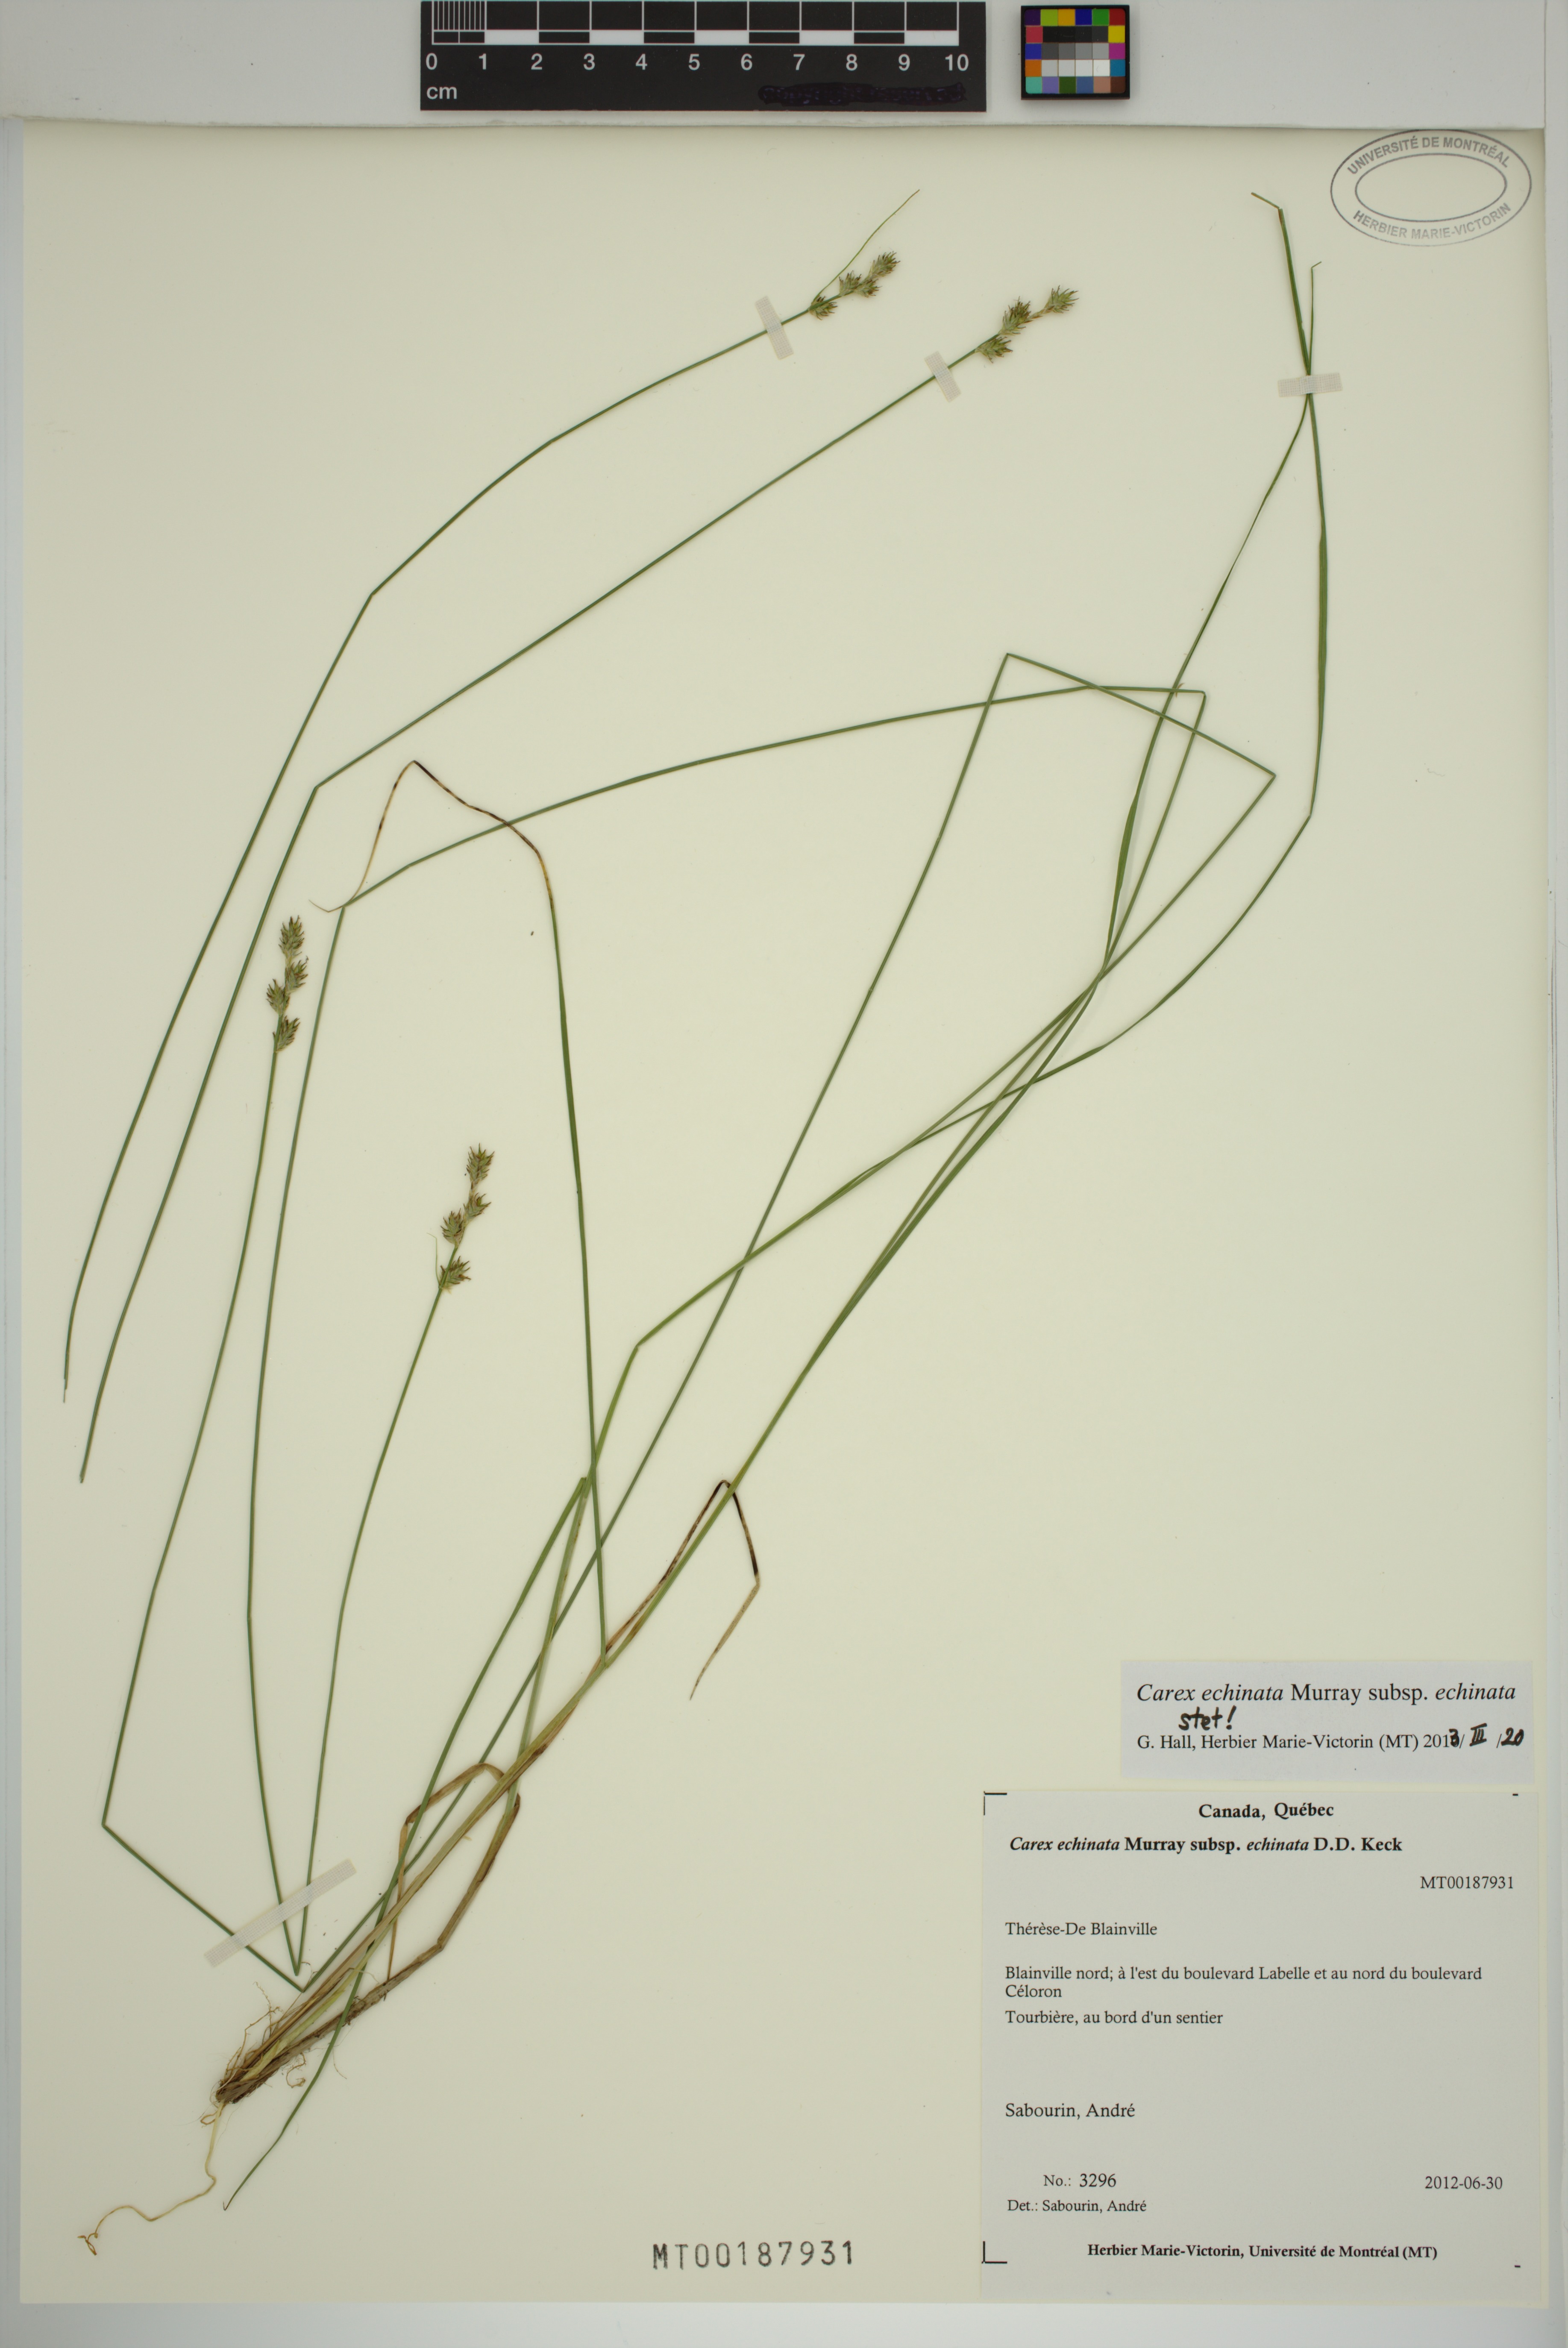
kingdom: Plantae
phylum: Tracheophyta
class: Liliopsida
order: Poales
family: Cyperaceae
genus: Carex
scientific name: Carex echinata
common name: Star sedge
